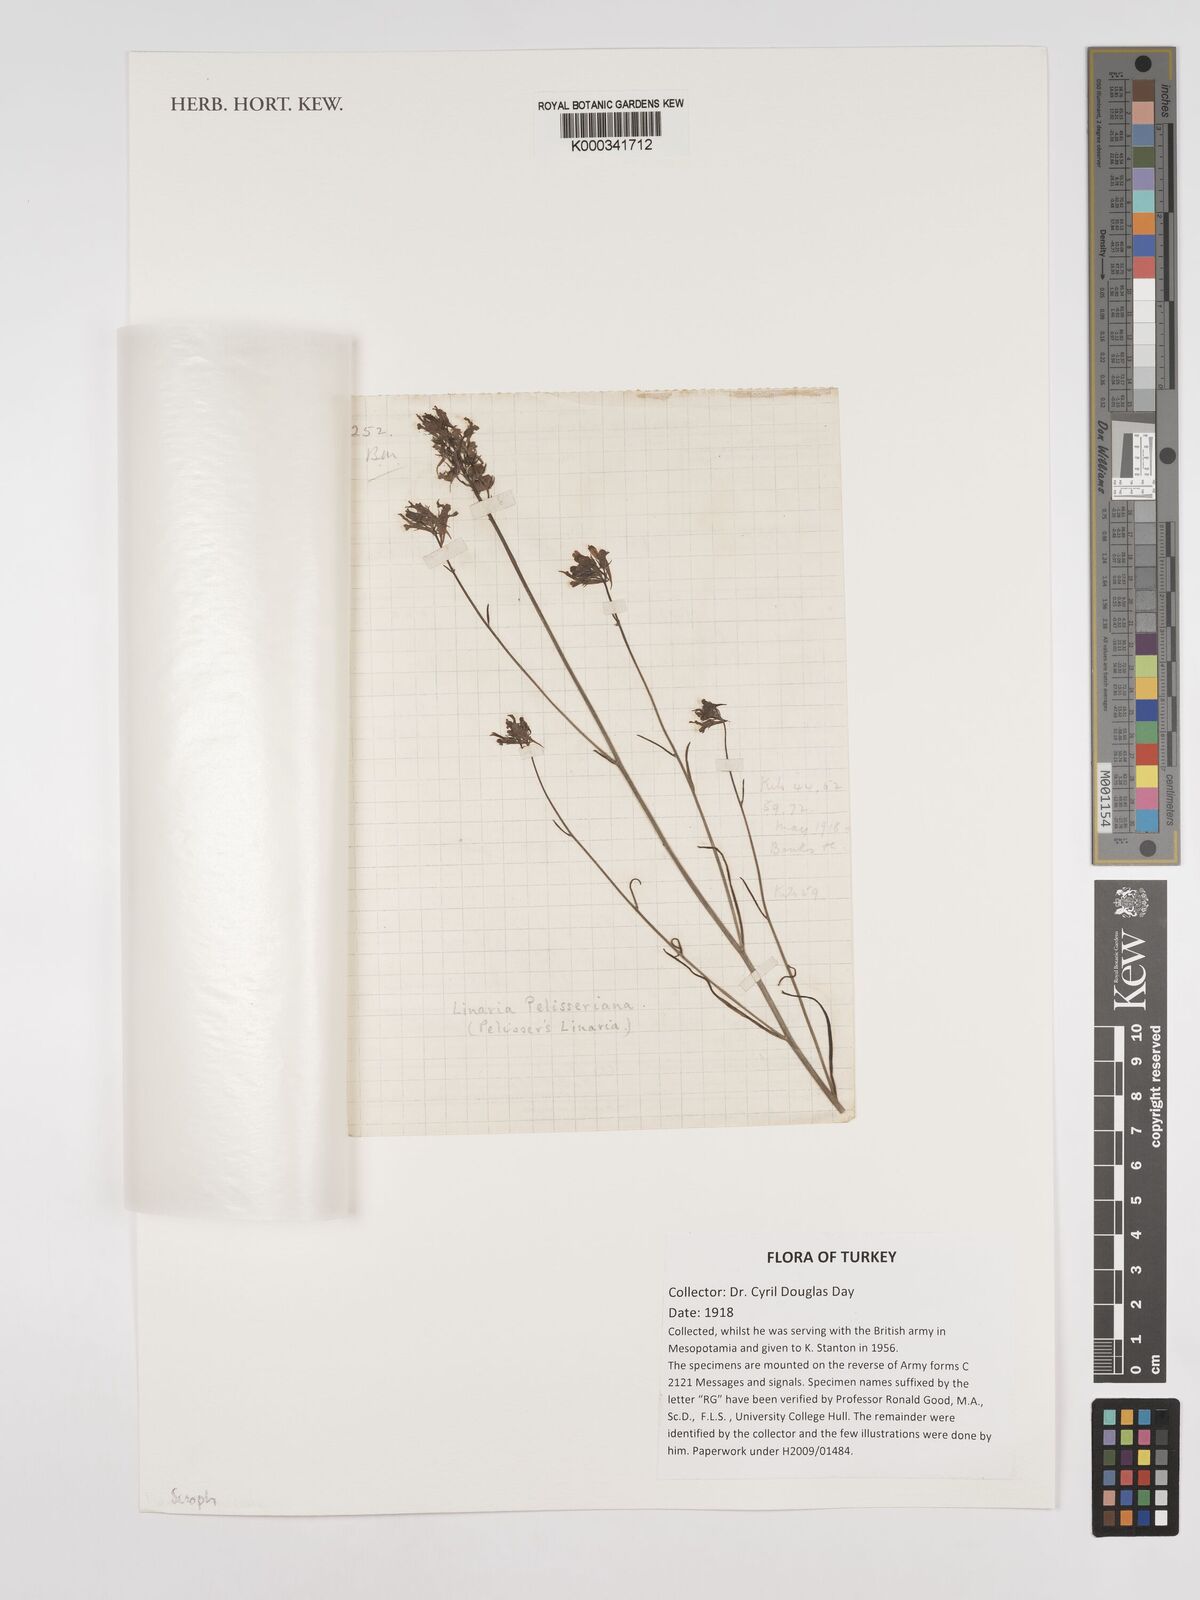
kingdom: Plantae
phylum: Tracheophyta
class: Magnoliopsida
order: Lamiales
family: Plantaginaceae
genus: Linaria
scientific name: Linaria pelisseriana
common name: Jersey toadflax
